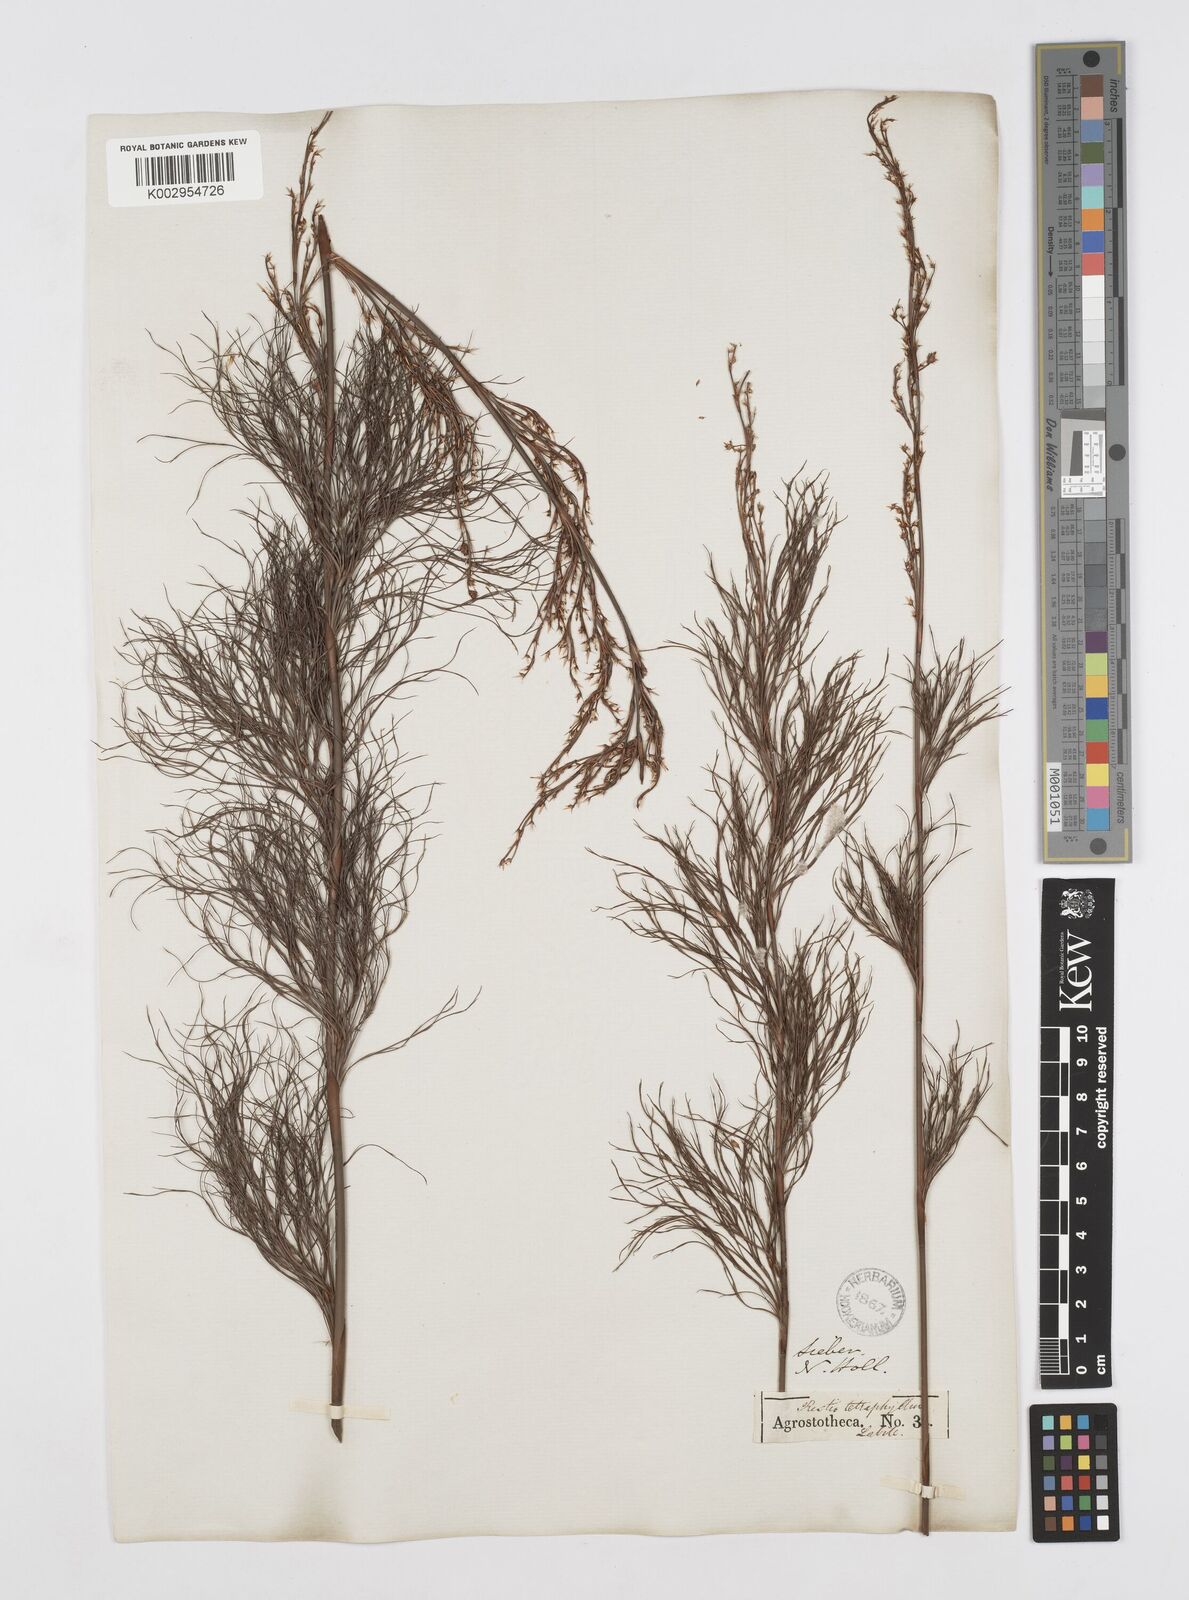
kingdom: Plantae
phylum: Tracheophyta
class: Liliopsida
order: Poales
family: Restionaceae
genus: Baloskion
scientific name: Baloskion tetraphyllum
